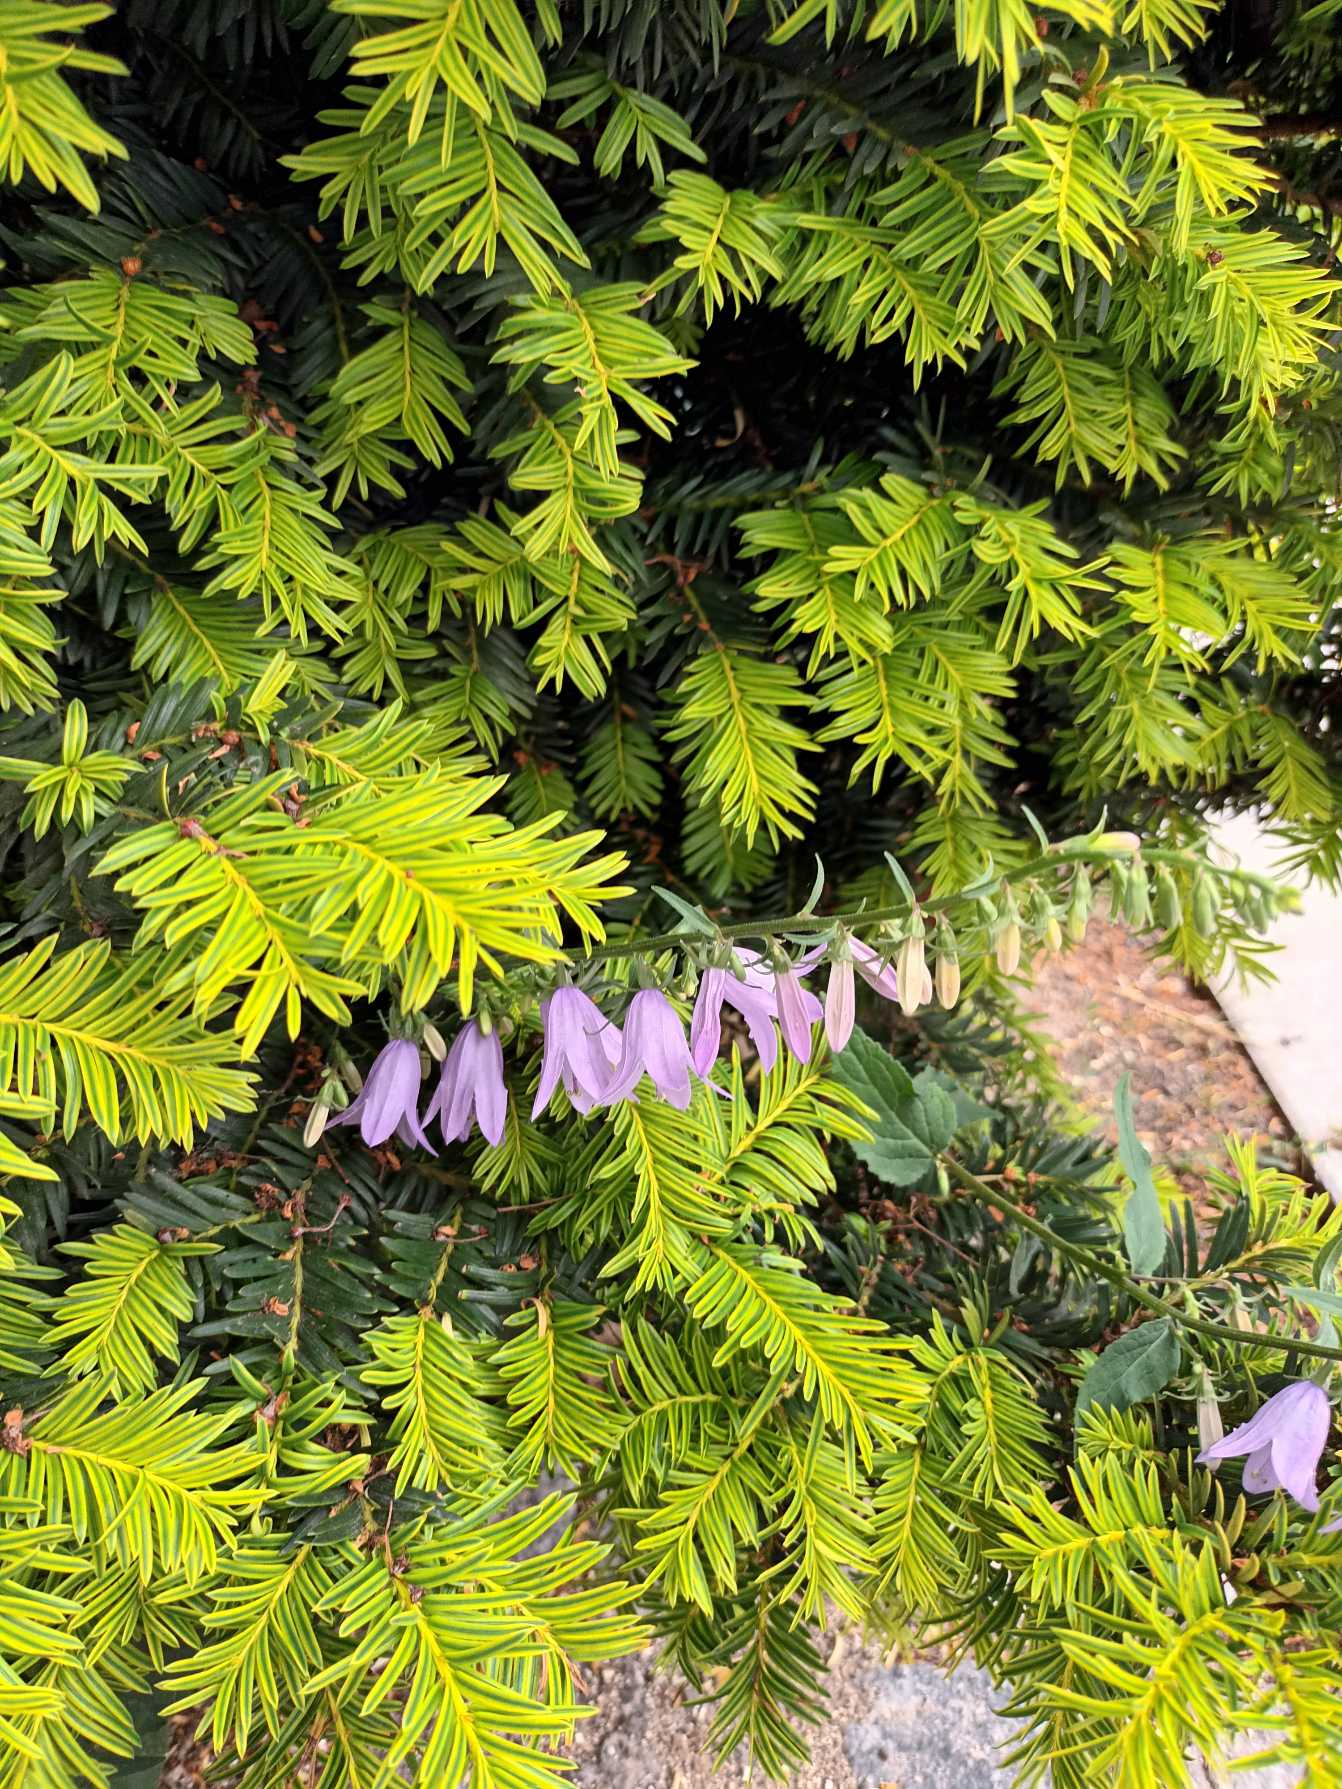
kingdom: Plantae
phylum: Tracheophyta
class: Magnoliopsida
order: Asterales
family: Campanulaceae
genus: Campanula
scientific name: Campanula rapunculoides
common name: Ensidig klokke
